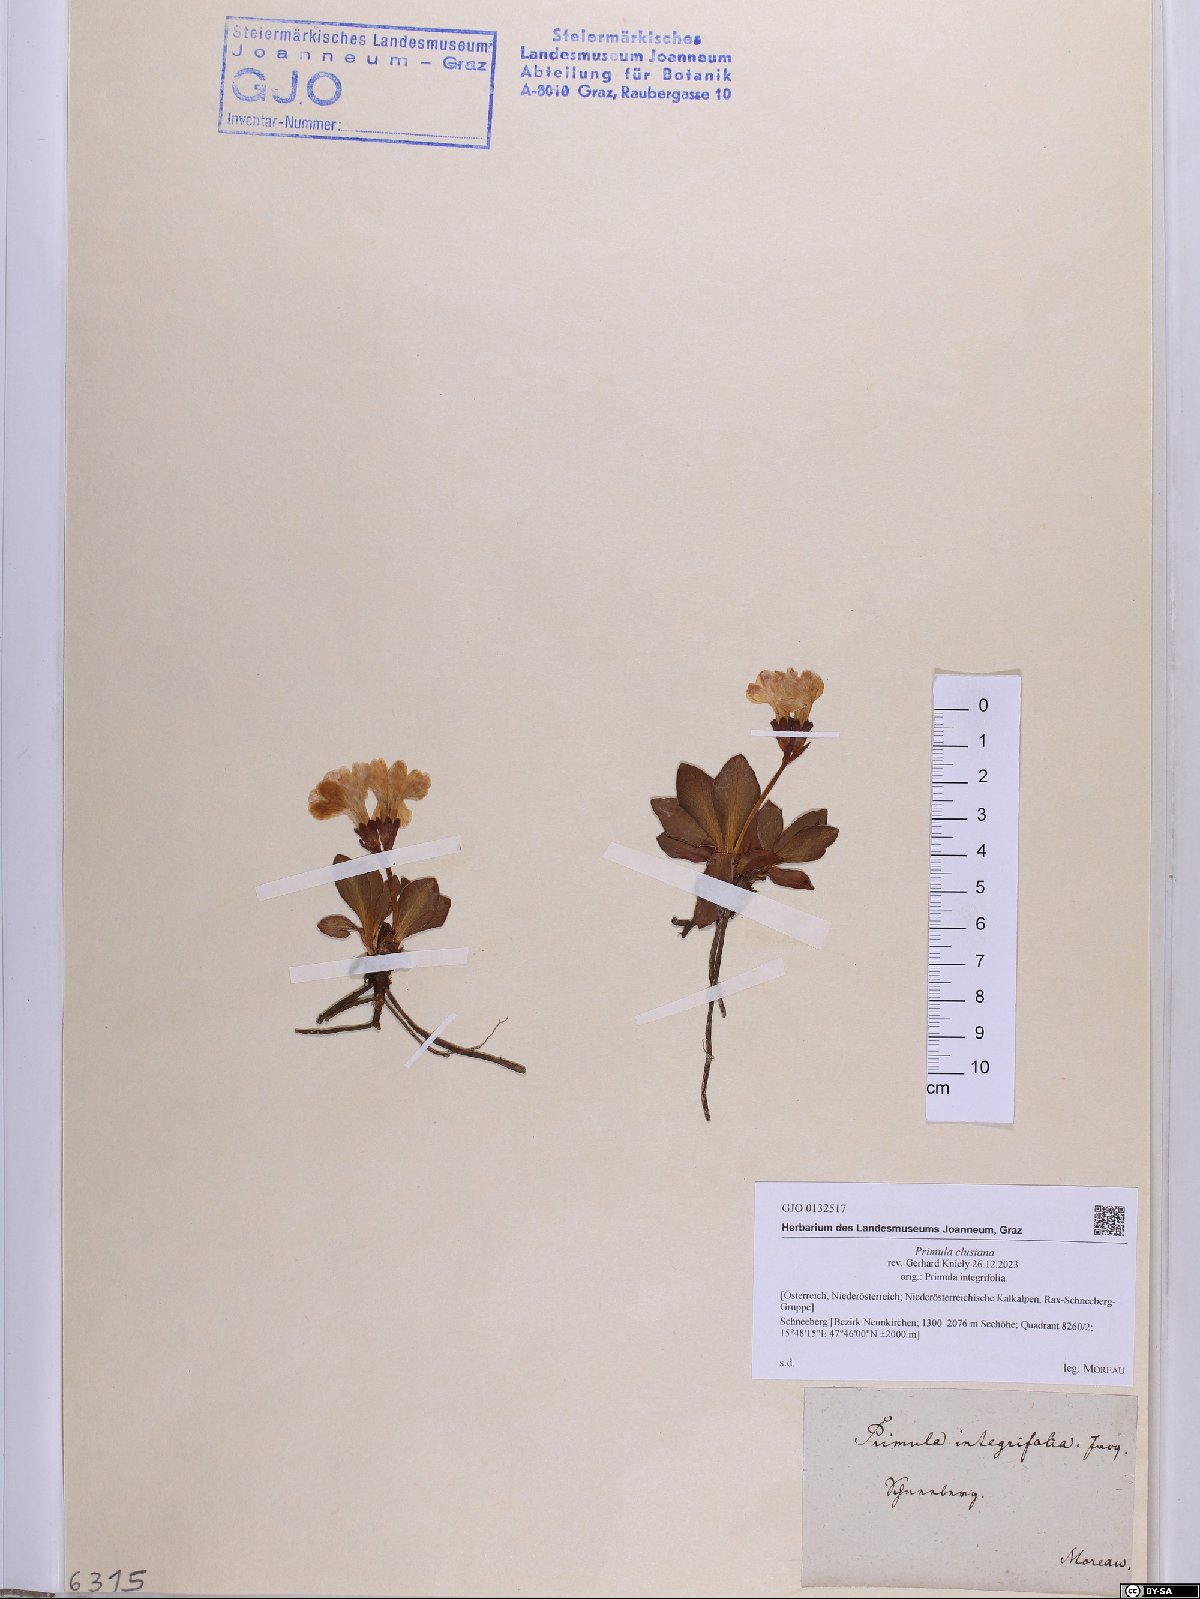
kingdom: Plantae
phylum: Tracheophyta
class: Magnoliopsida
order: Ericales
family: Primulaceae
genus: Primula
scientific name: Primula clusiana
